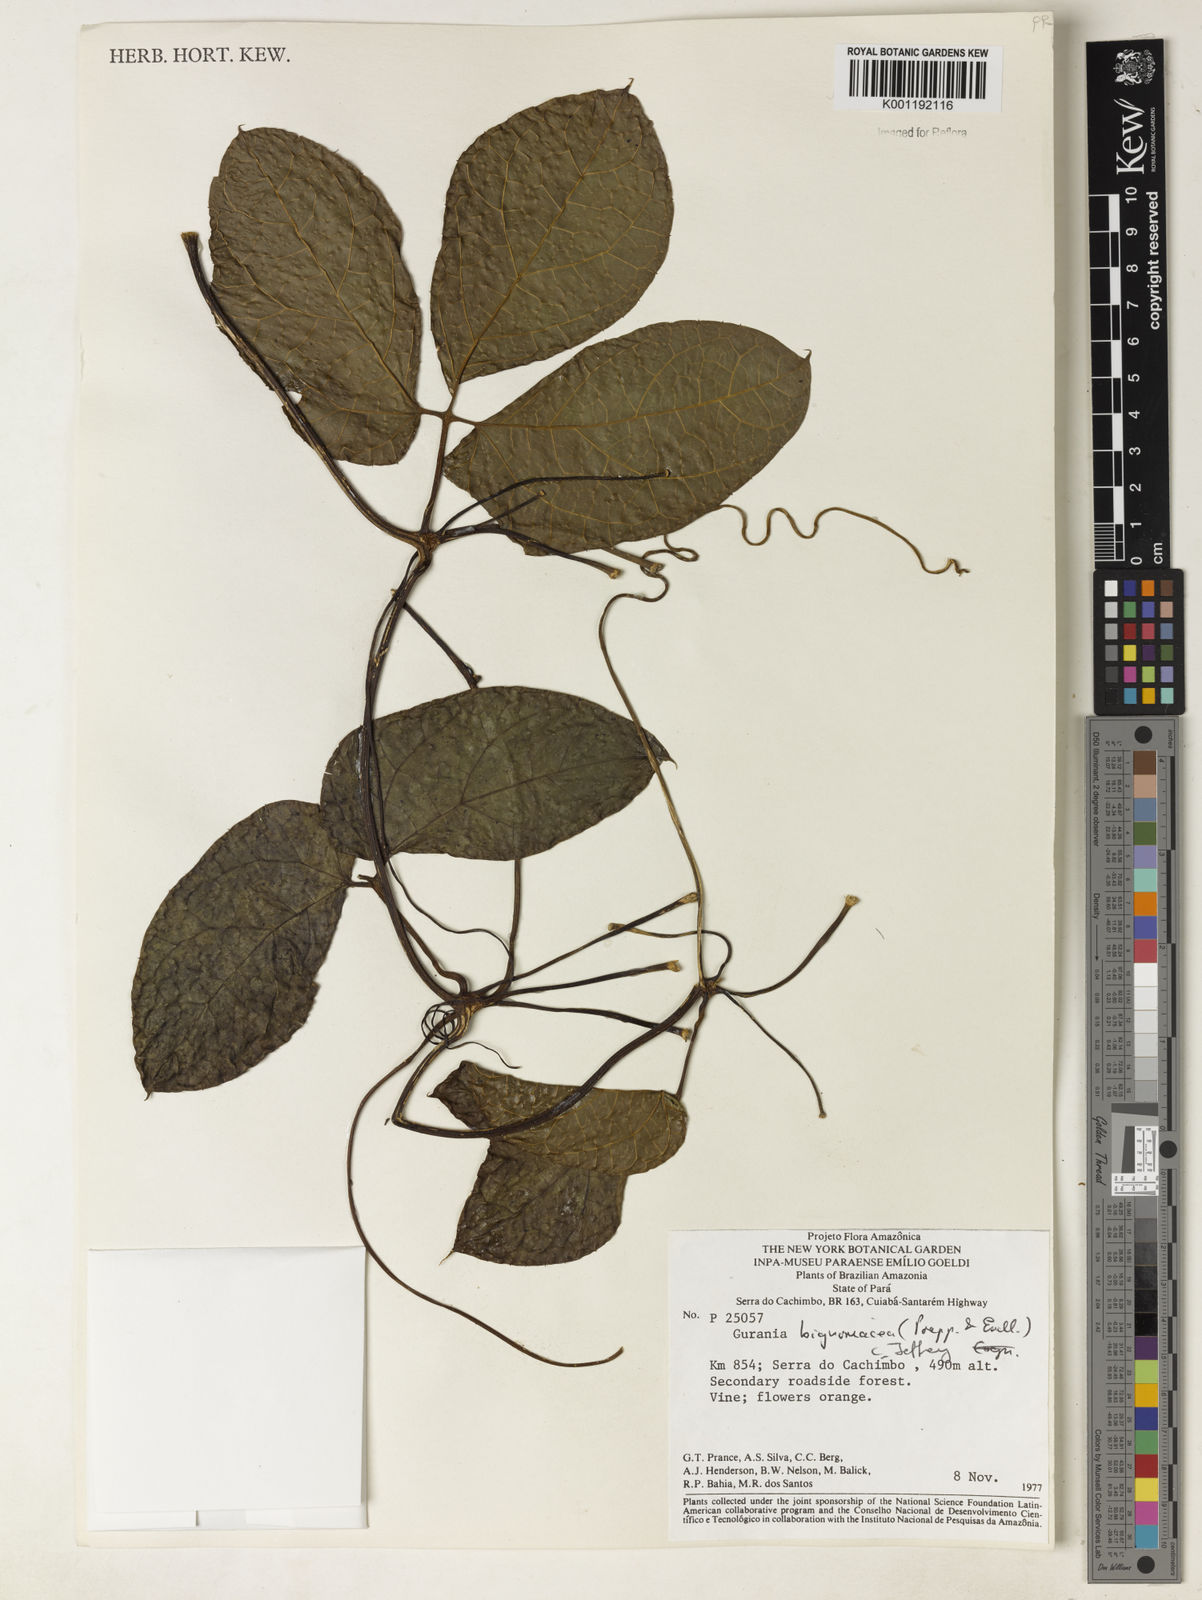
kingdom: Plantae
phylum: Tracheophyta
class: Magnoliopsida
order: Cucurbitales
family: Cucurbitaceae
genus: Gurania
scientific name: Gurania bignoniacea
